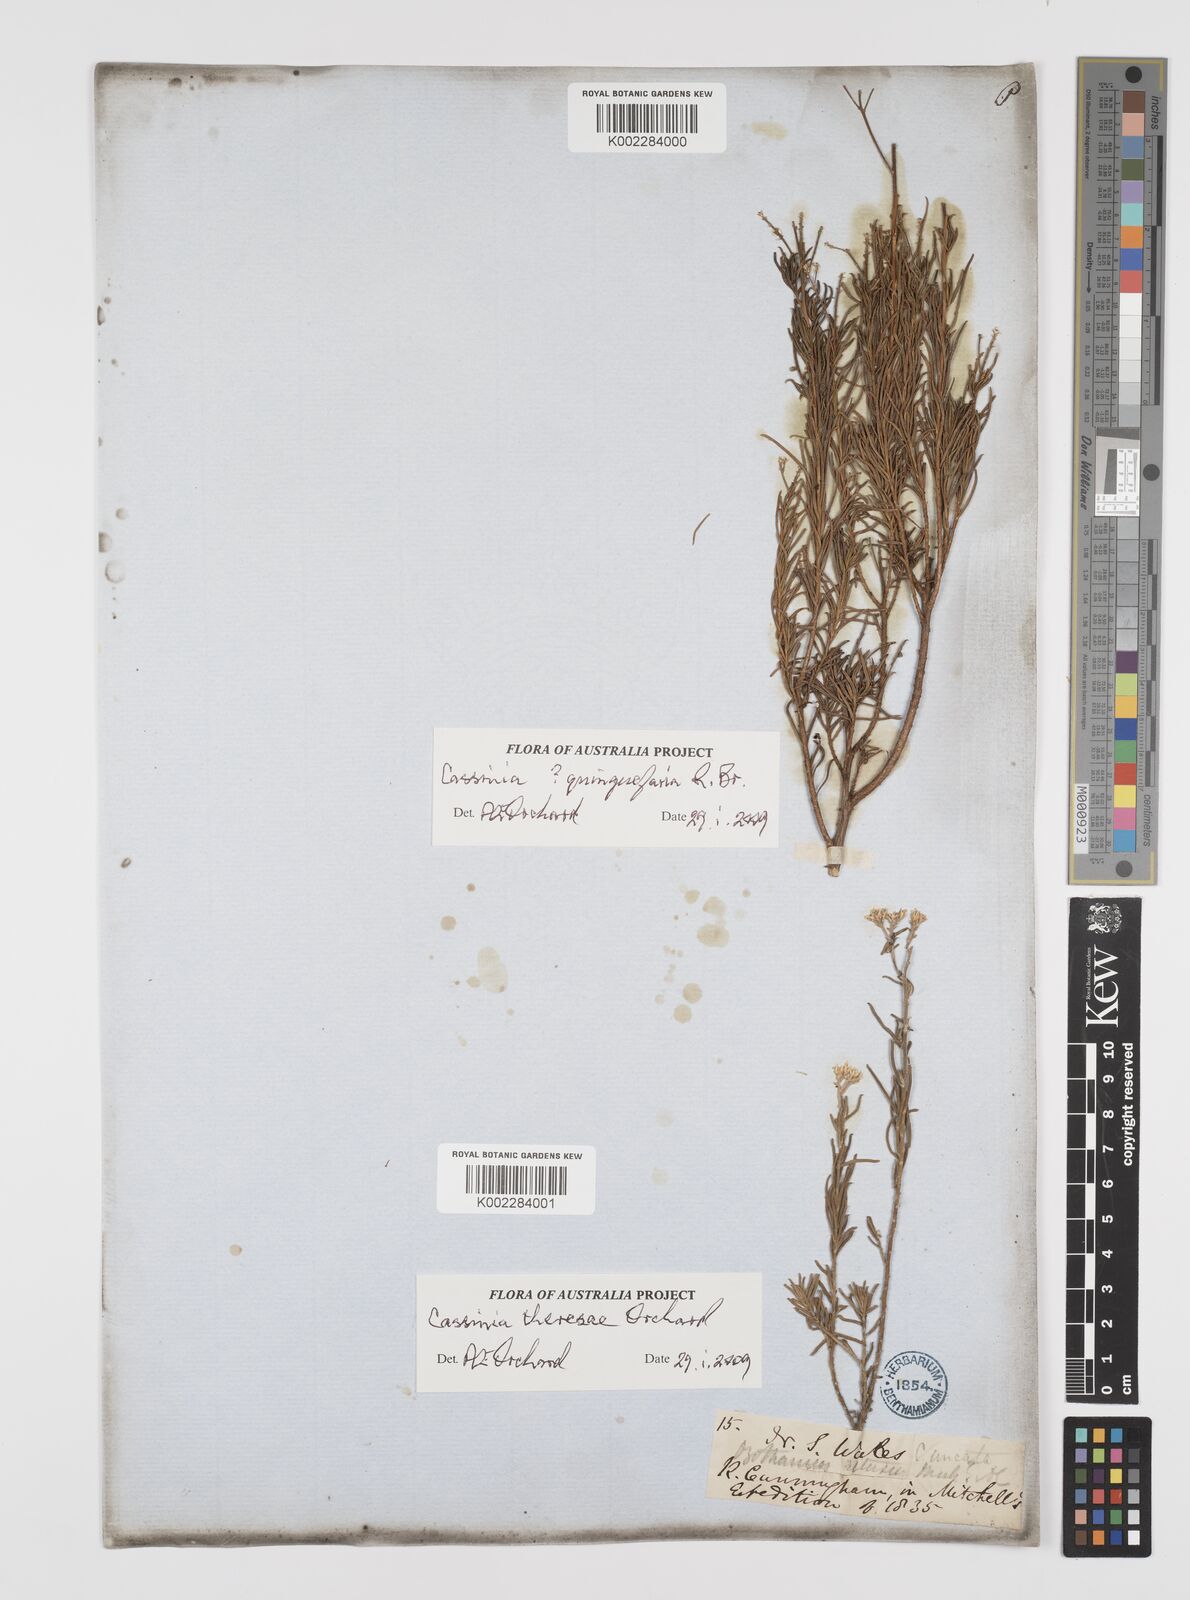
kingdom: Plantae
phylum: Tracheophyta
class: Magnoliopsida
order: Asterales
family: Asteraceae
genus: Cassinia
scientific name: Cassinia theresae
